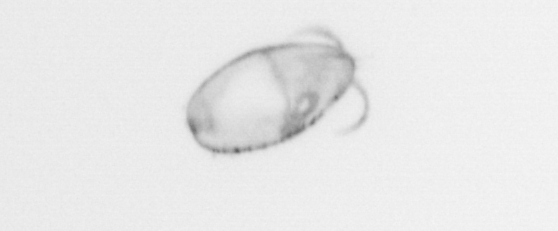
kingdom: Chromista
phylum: Ochrophyta
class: Bacillariophyceae
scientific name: Bacillariophyceae
